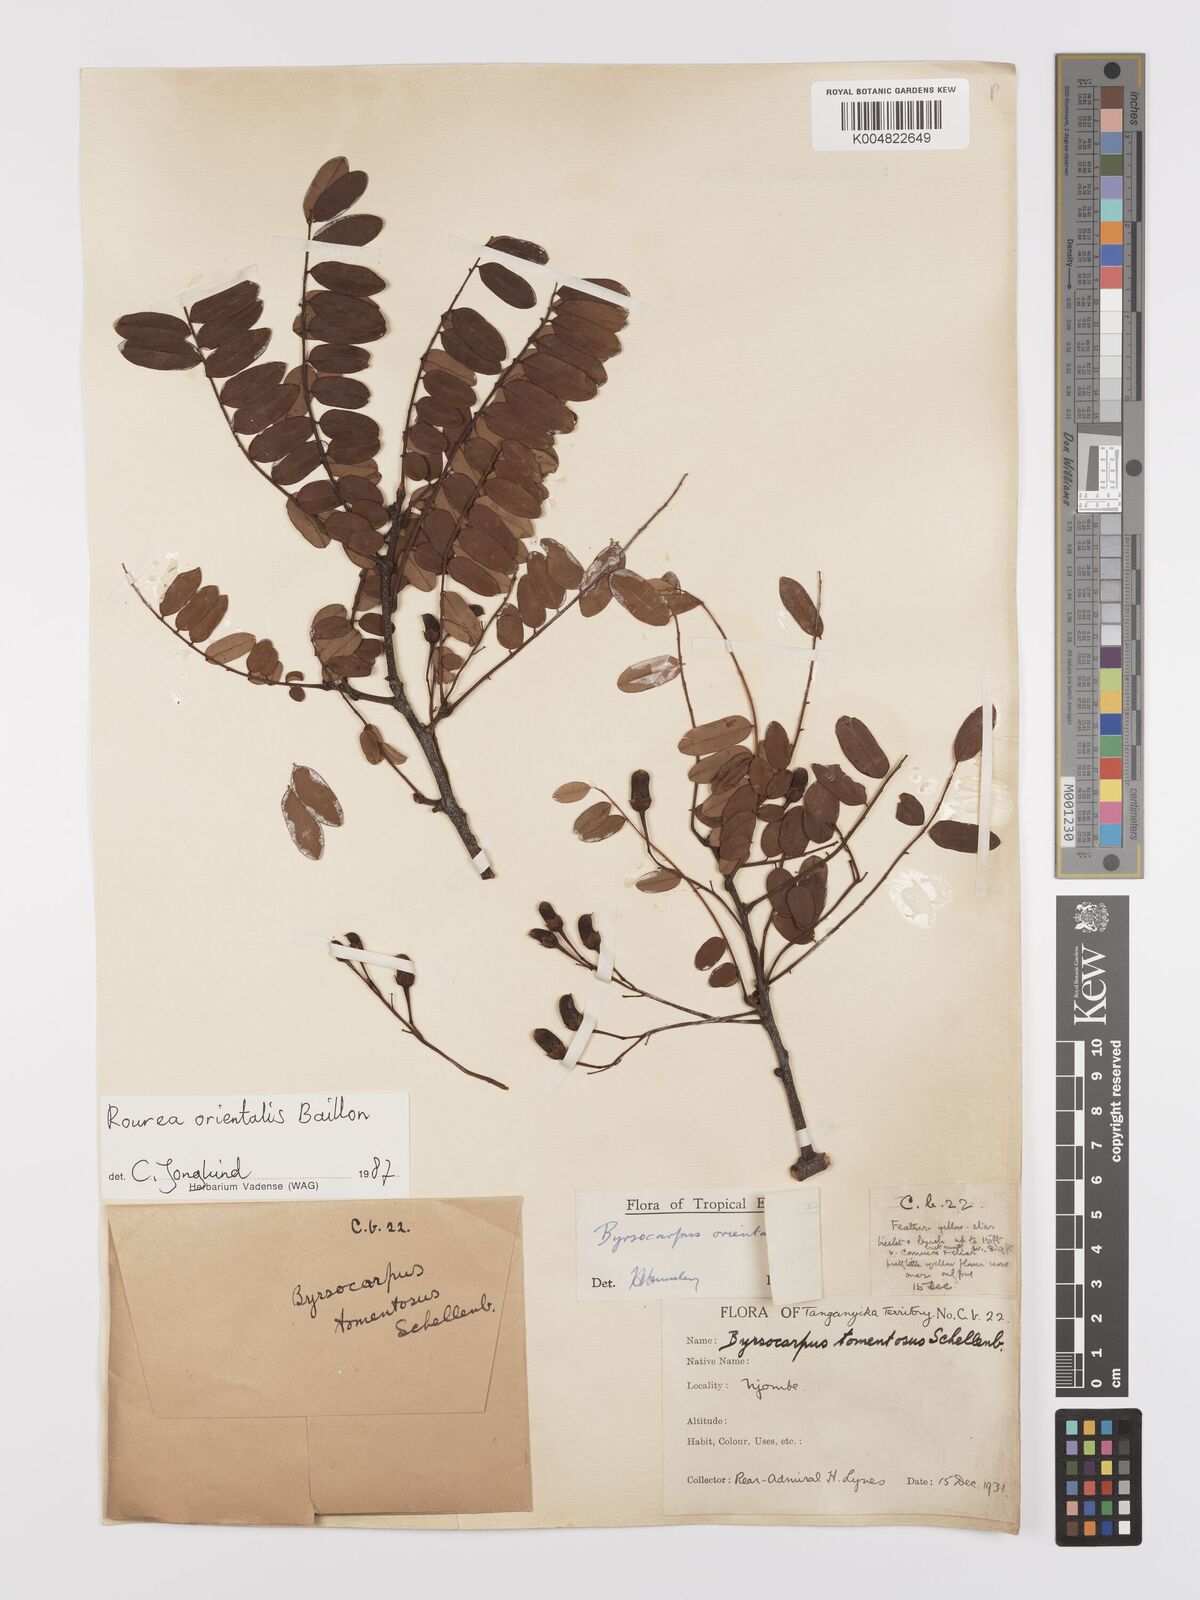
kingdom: Plantae
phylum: Tracheophyta
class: Magnoliopsida
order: Oxalidales
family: Connaraceae
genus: Rourea
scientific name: Rourea orientalis
